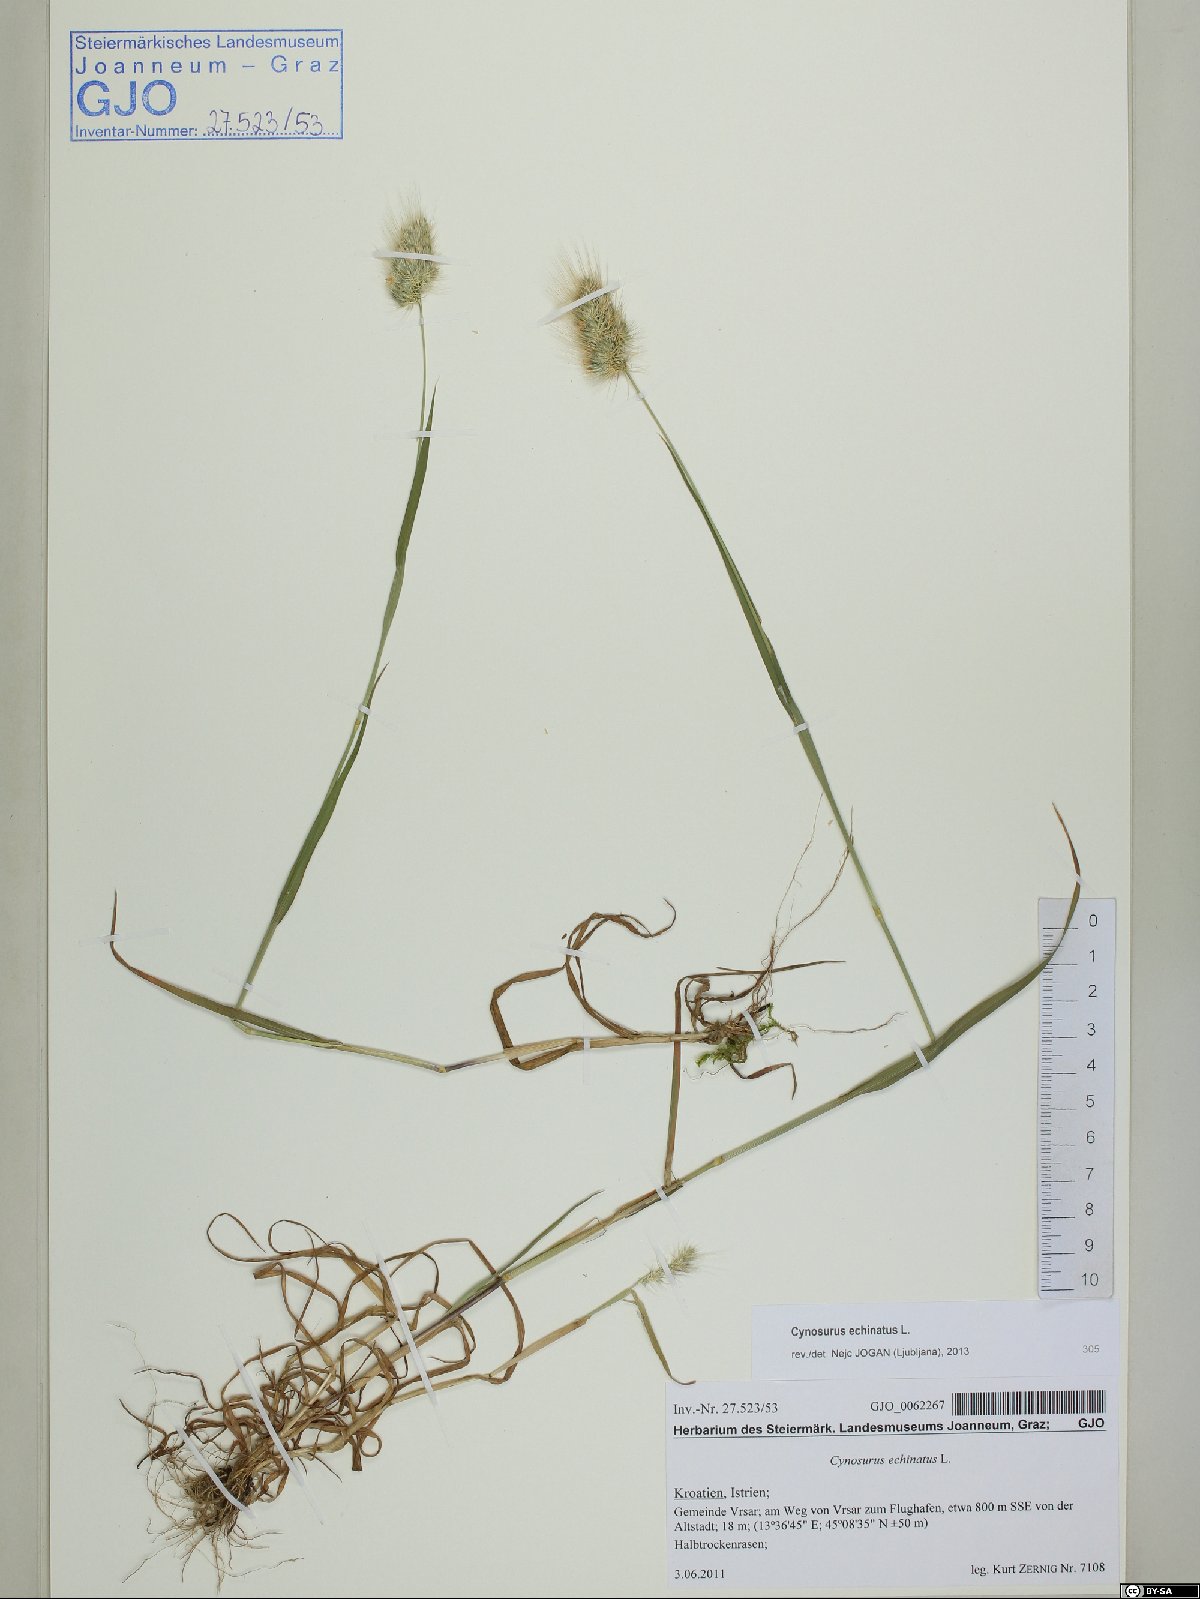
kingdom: Plantae
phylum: Tracheophyta
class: Liliopsida
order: Poales
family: Poaceae
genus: Cynosurus
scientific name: Cynosurus echinatus
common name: Rough dog's-tail
